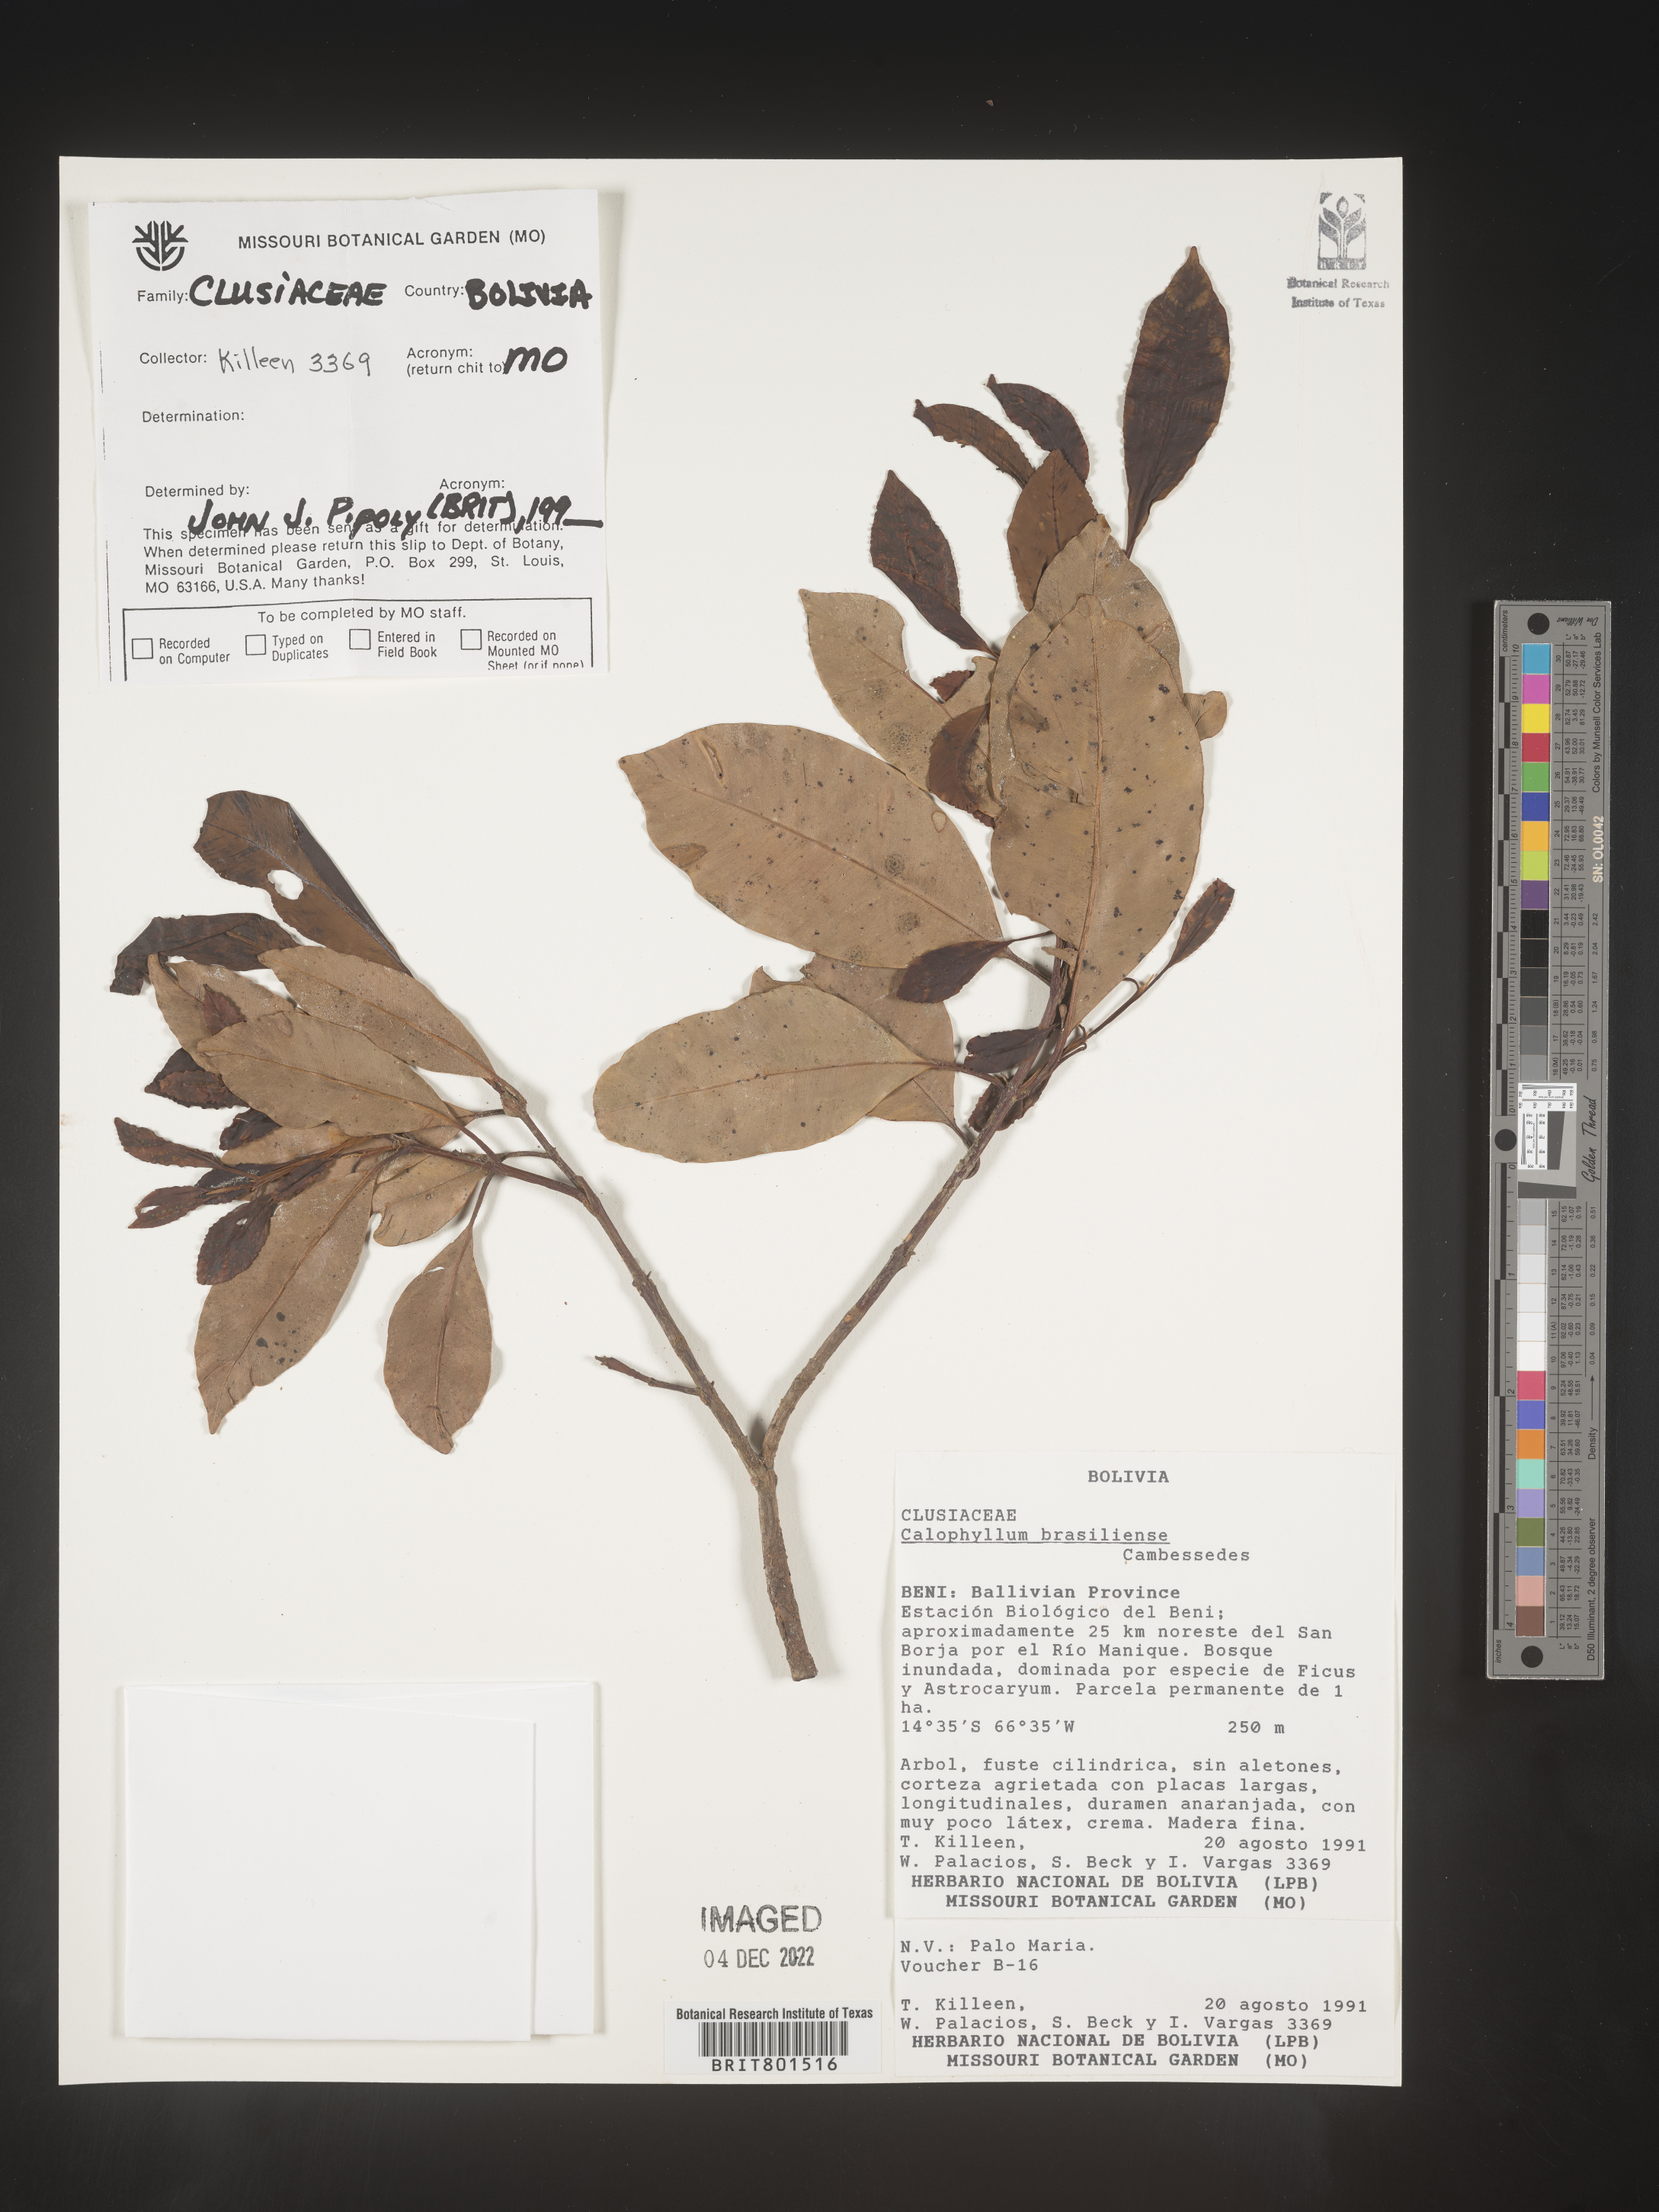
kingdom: Plantae
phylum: Tracheophyta
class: Magnoliopsida
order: Malpighiales
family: Calophyllaceae
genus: Calophyllum
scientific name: Calophyllum brasiliense
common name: Santa maria
